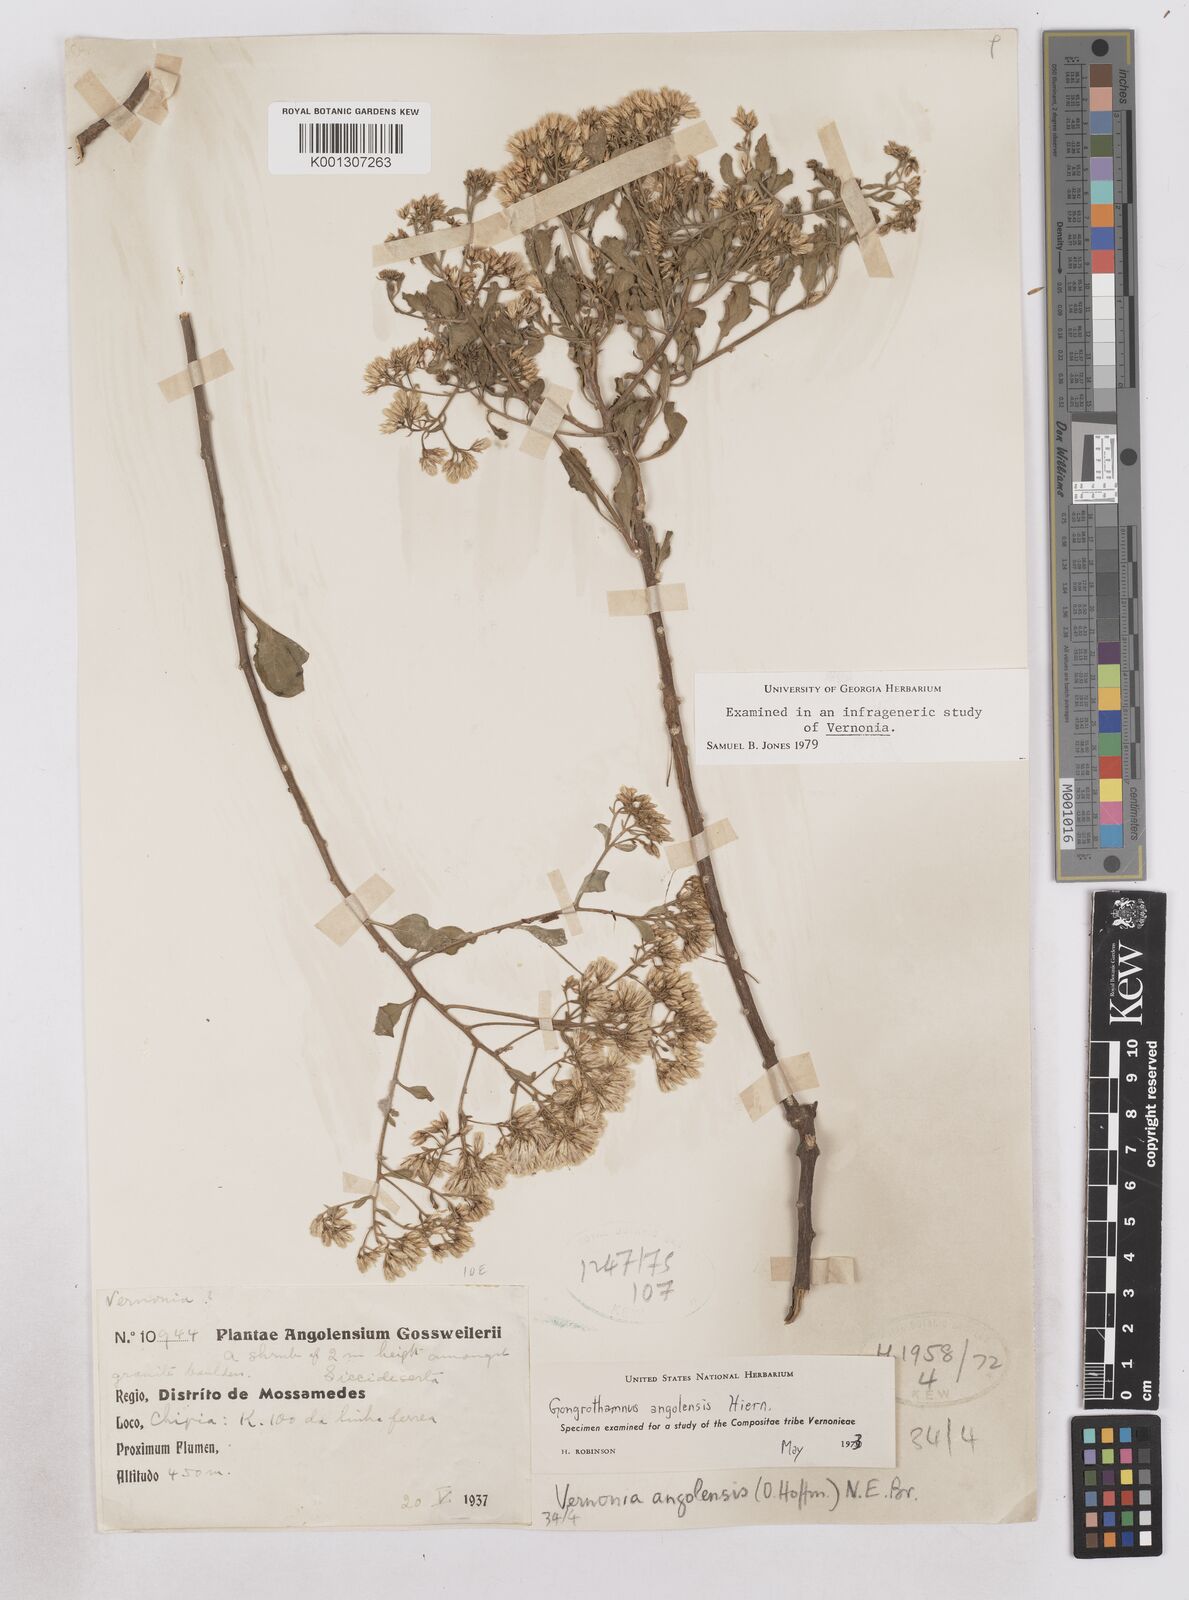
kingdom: Plantae
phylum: Tracheophyta
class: Magnoliopsida
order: Asterales
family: Asteraceae
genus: Distephanus
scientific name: Distephanus angolensis
